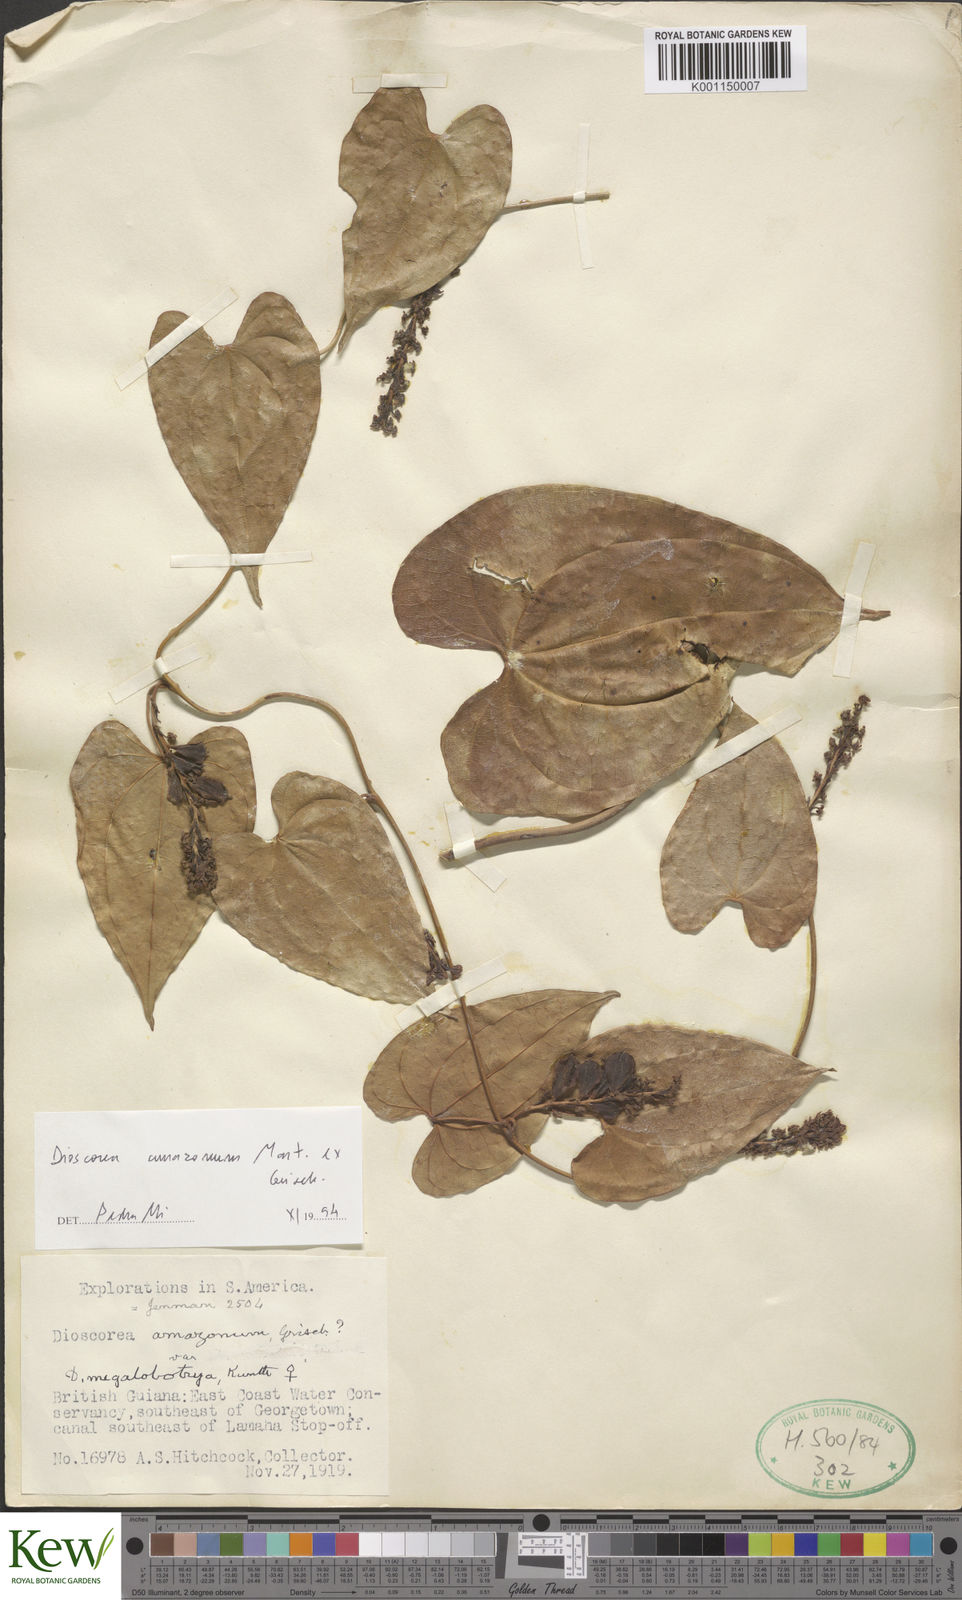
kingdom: Plantae
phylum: Tracheophyta
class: Liliopsida
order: Dioscoreales
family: Dioscoreaceae
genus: Dioscorea
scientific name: Dioscorea amazonum
